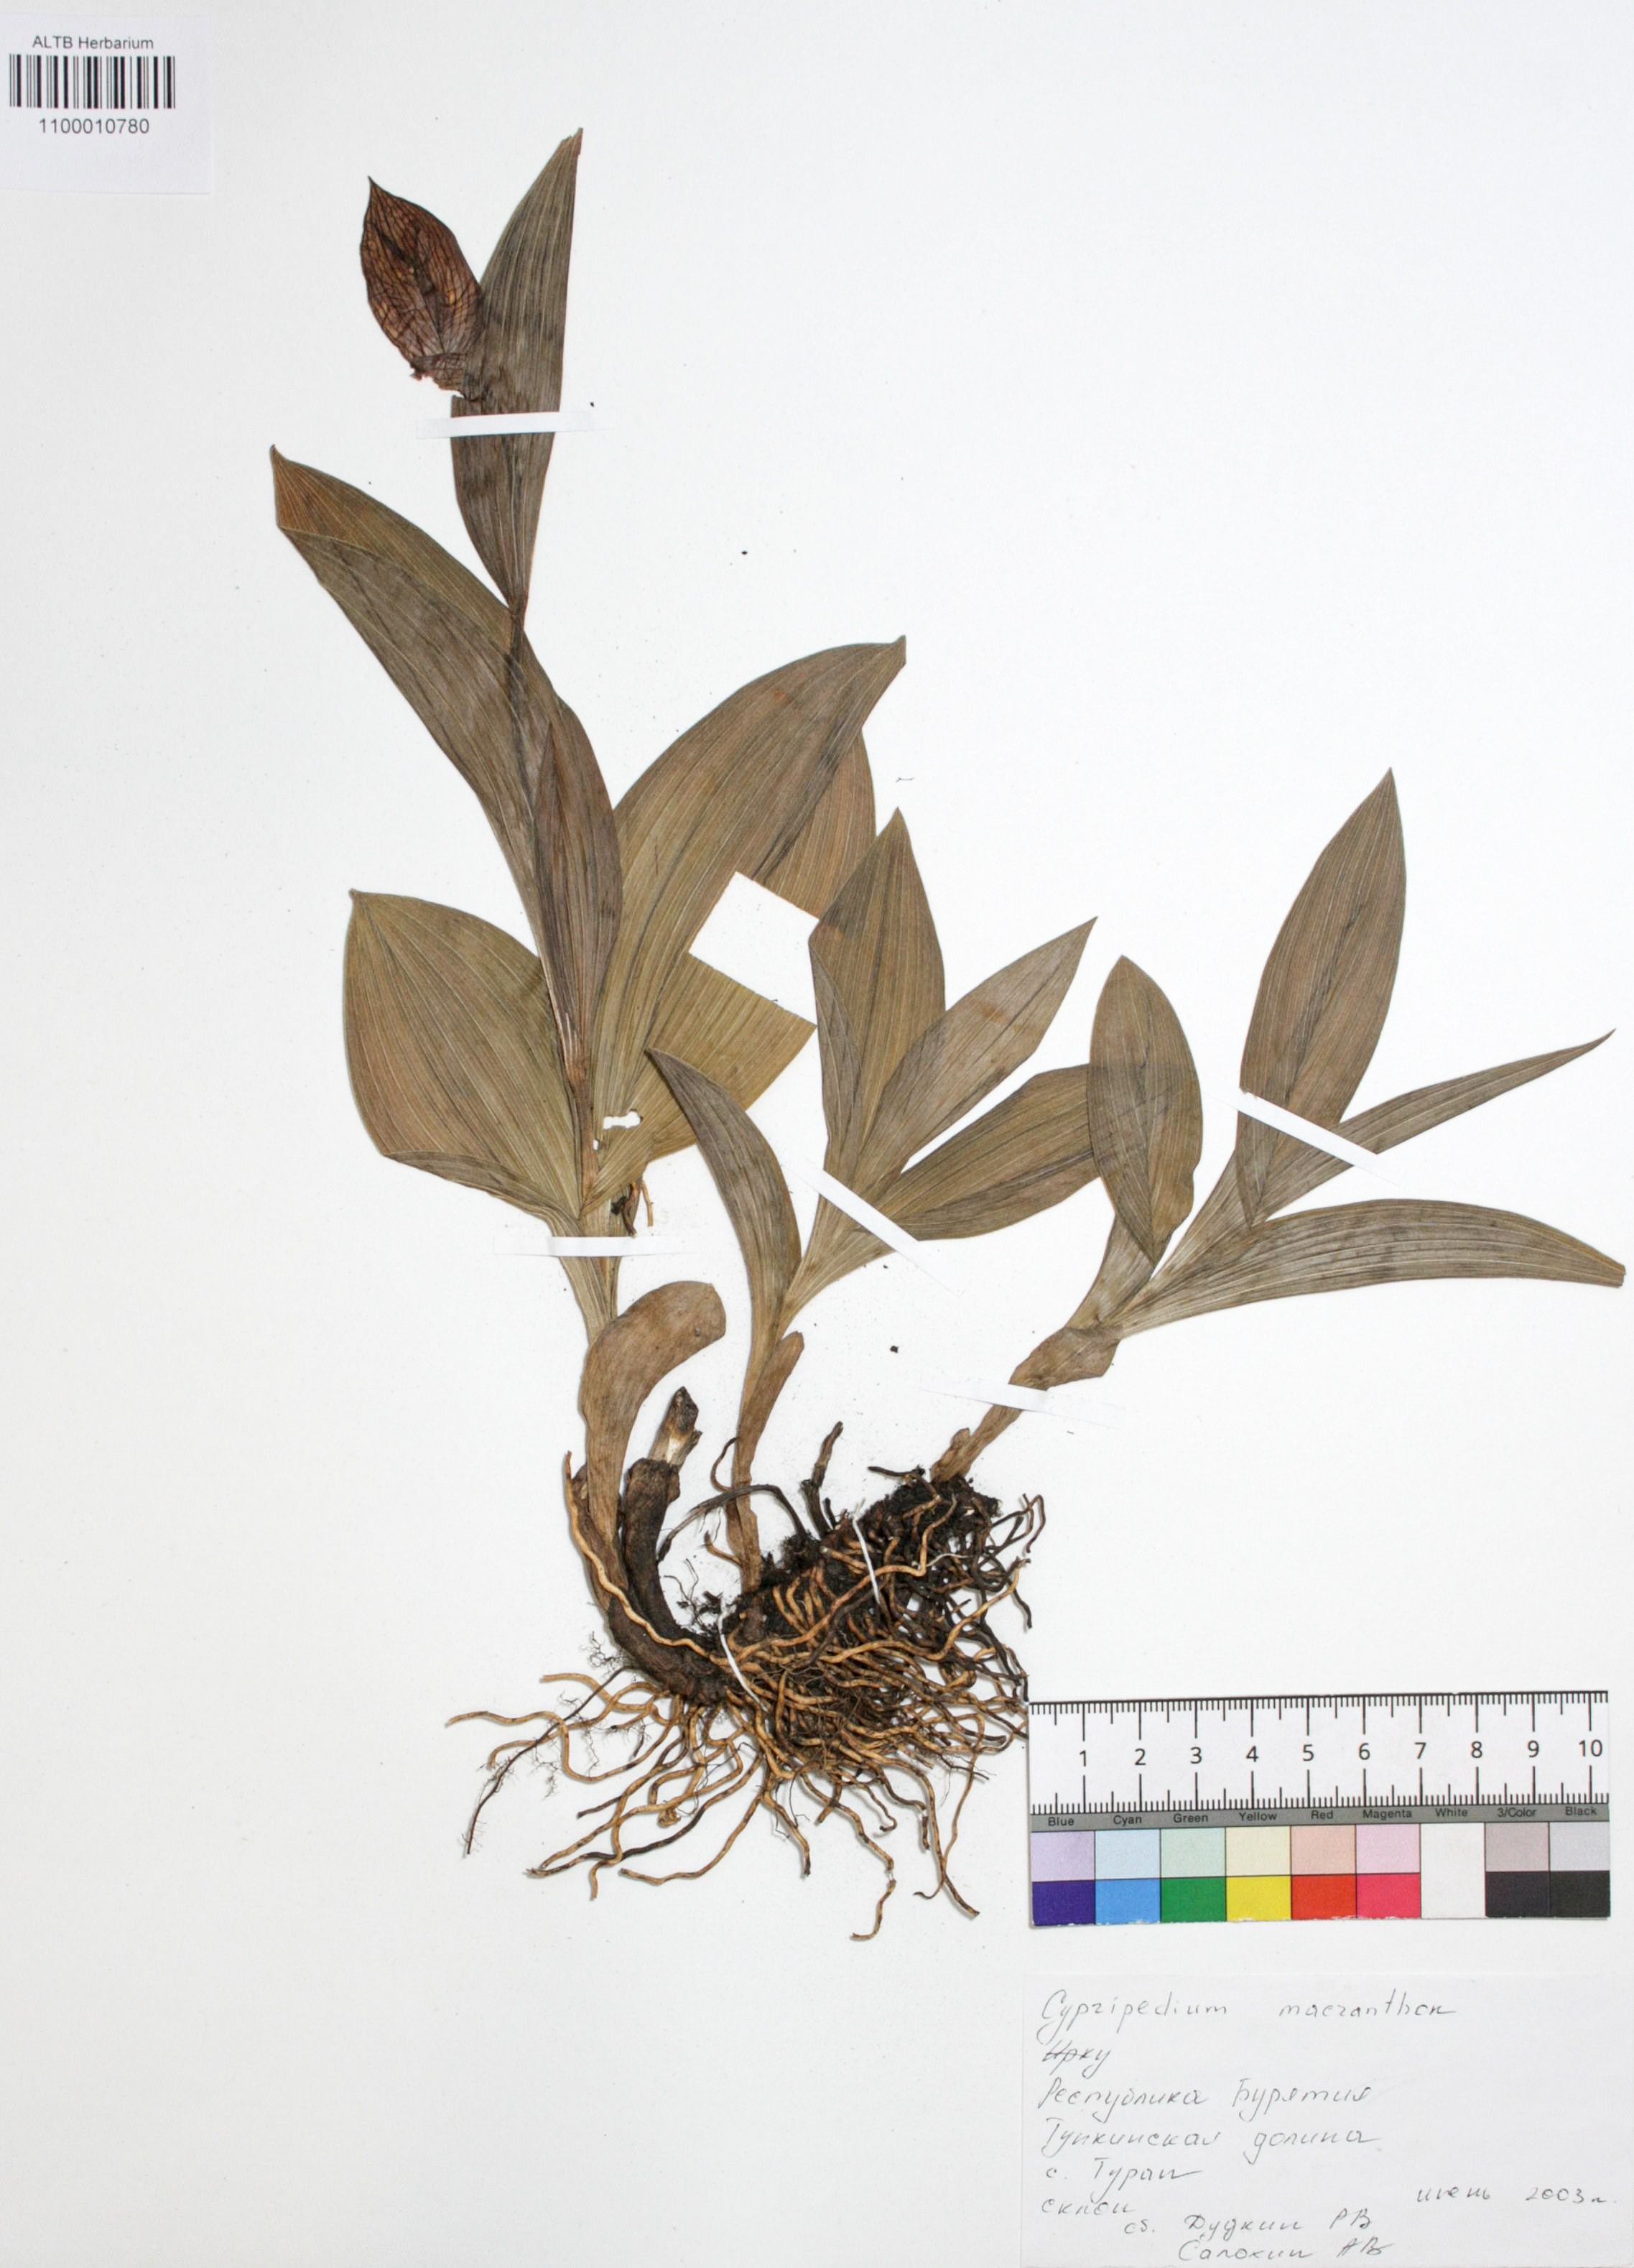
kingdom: Plantae
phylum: Tracheophyta
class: Liliopsida
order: Asparagales
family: Orchidaceae
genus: Cypripedium
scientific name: Cypripedium macranthon
